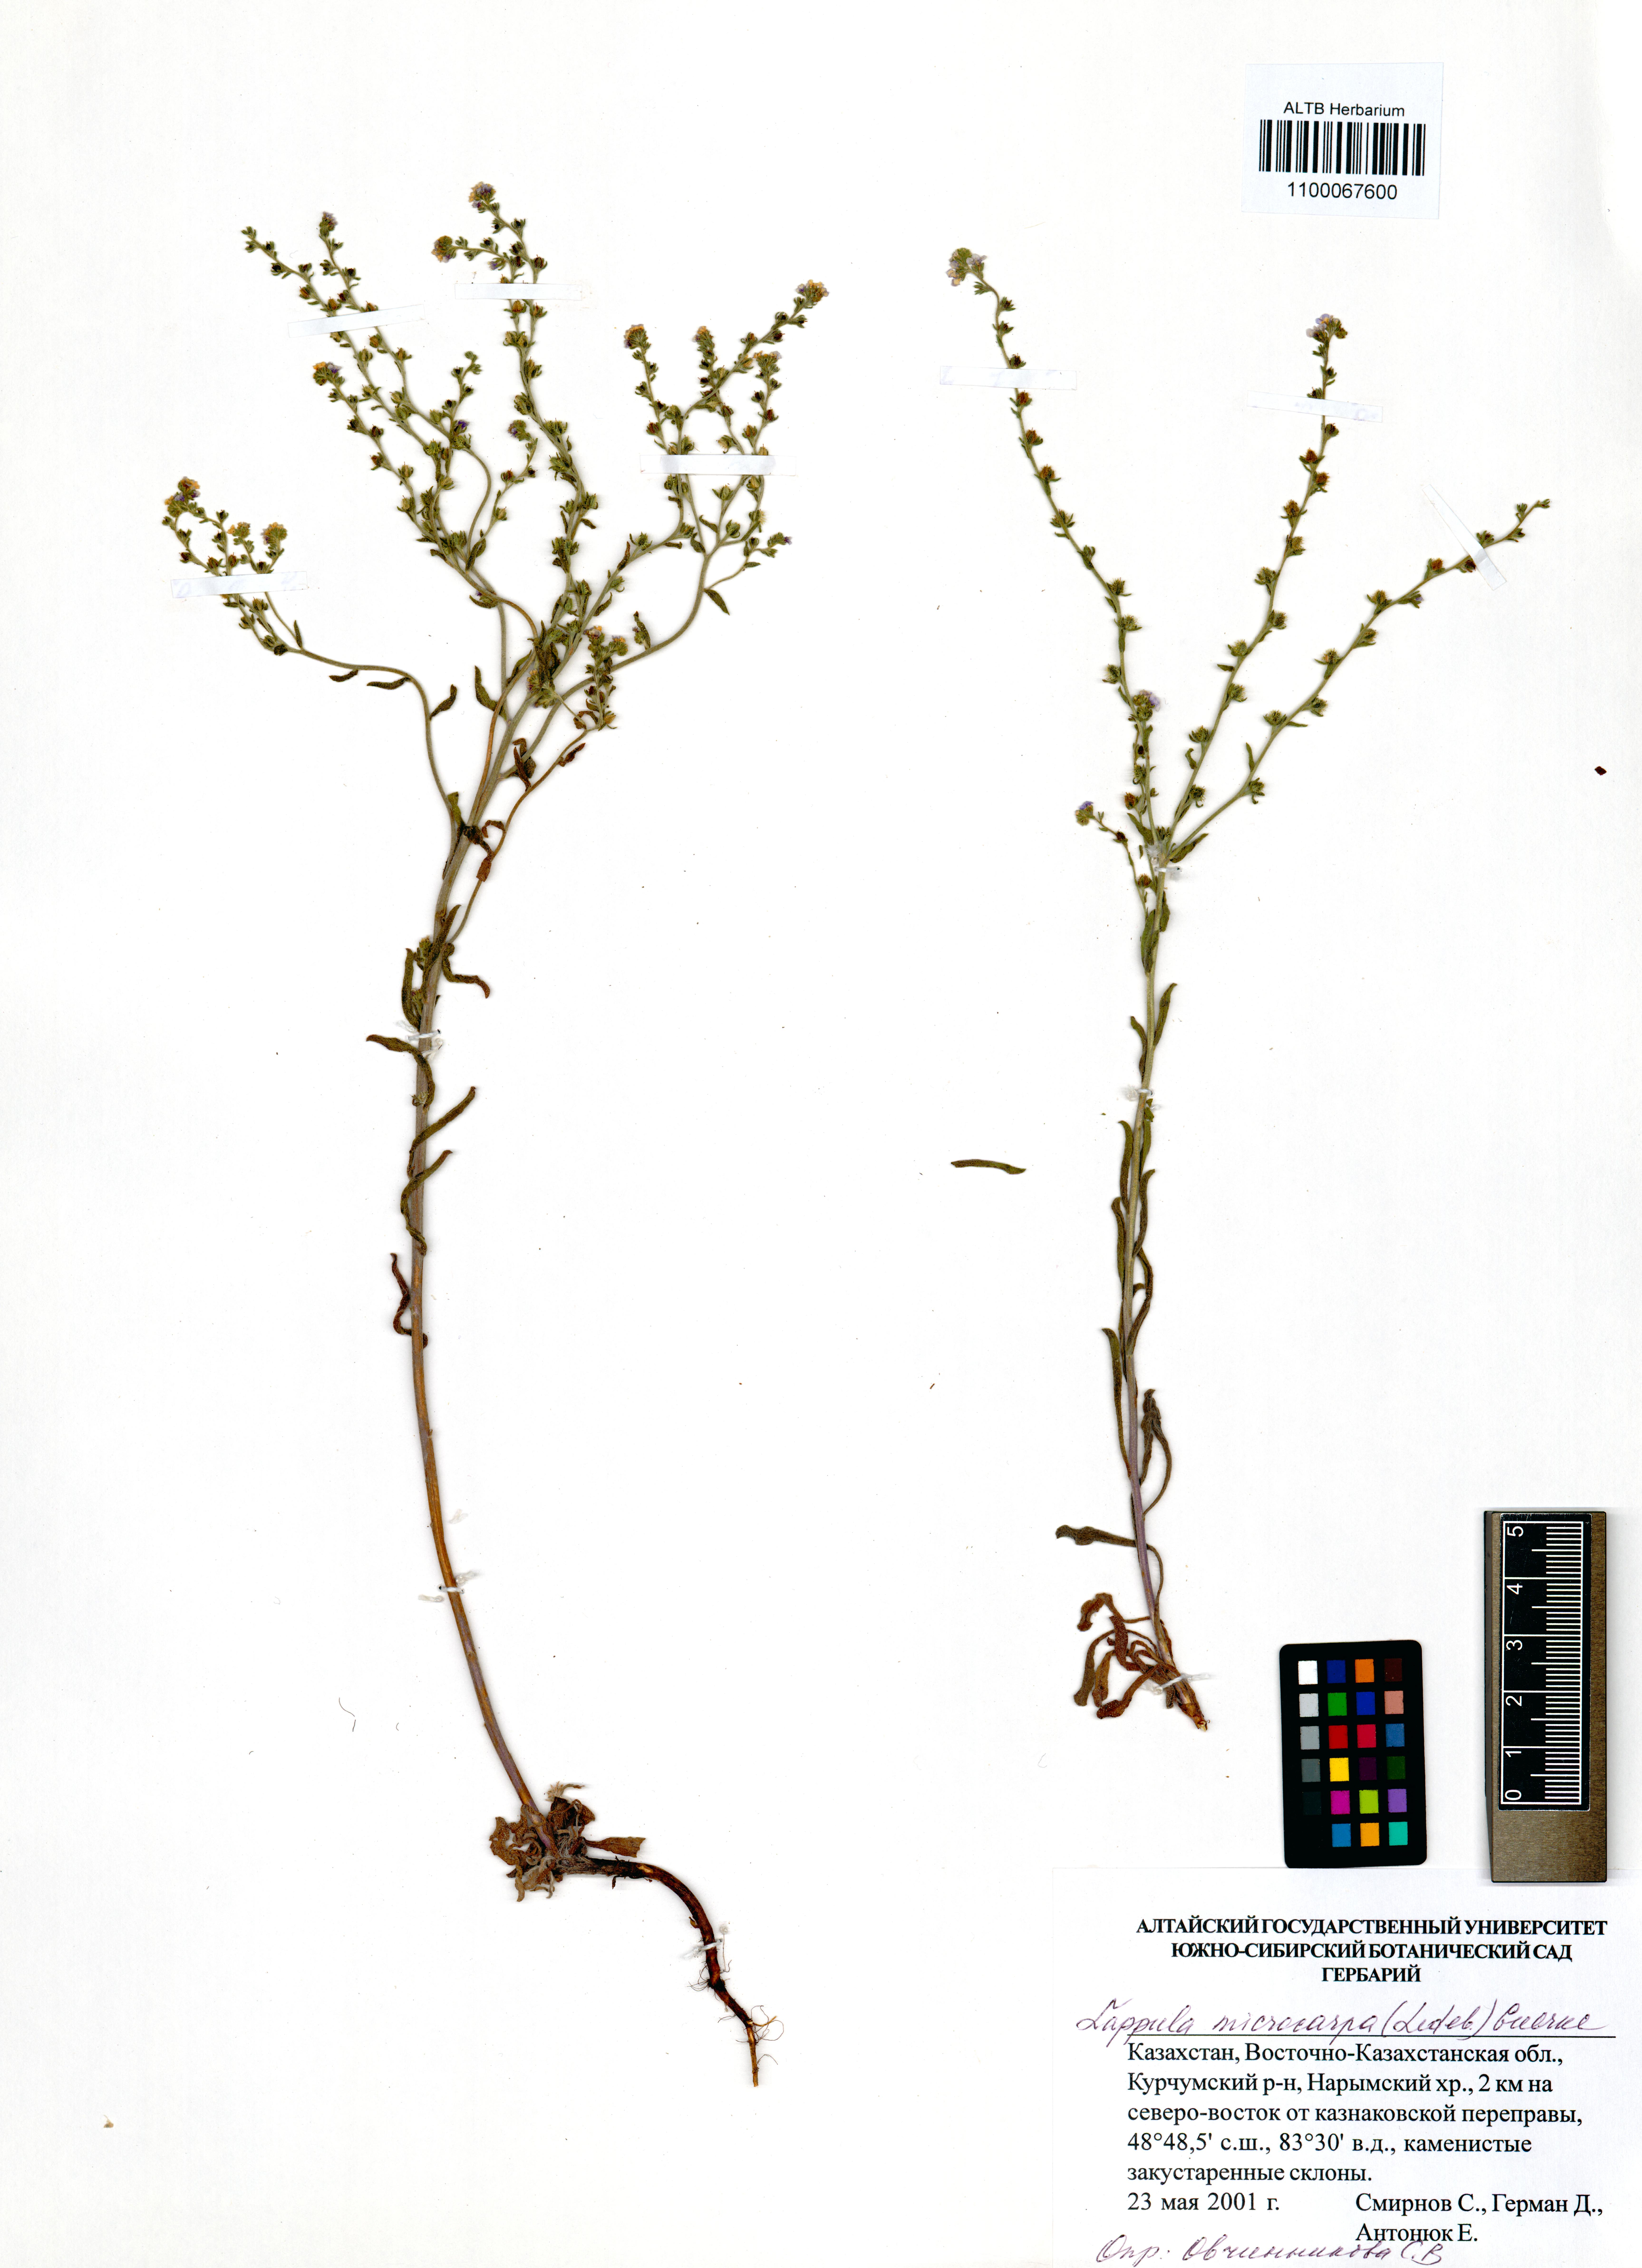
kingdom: Plantae
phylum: Tracheophyta
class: Magnoliopsida
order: Boraginales
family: Boraginaceae
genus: Lappula
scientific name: Lappula microcarpa
